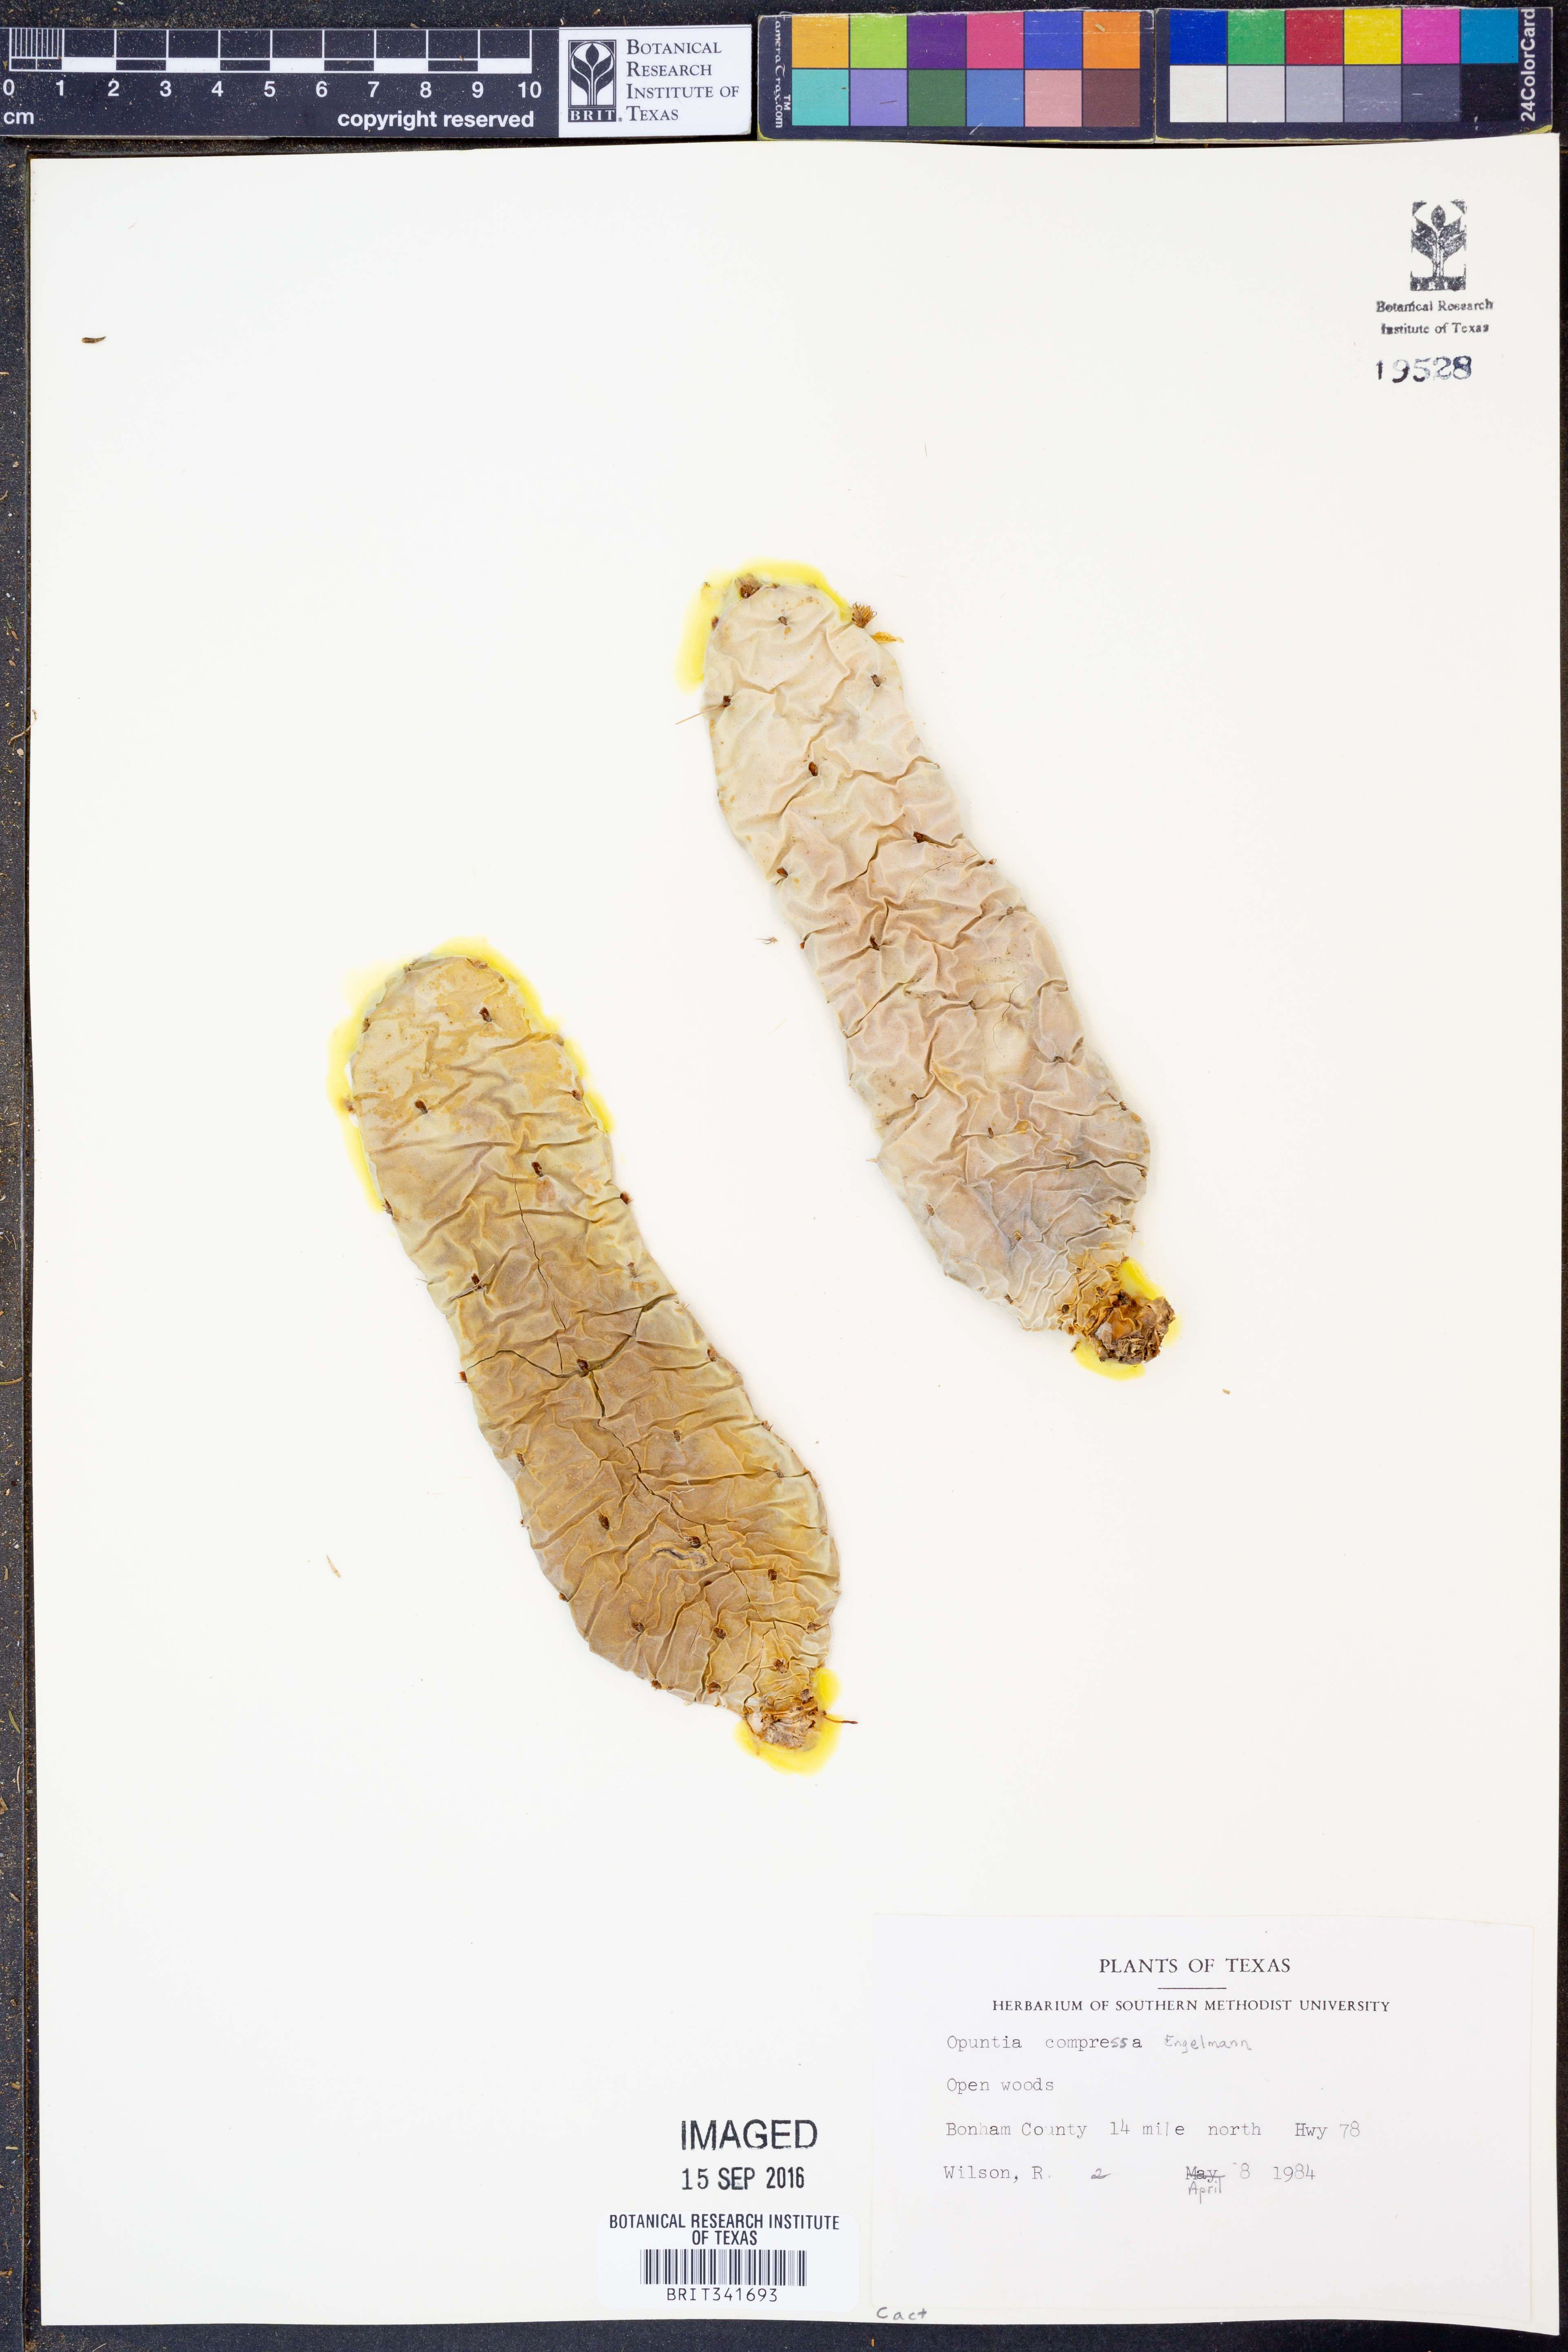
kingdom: Plantae
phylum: Tracheophyta
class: Magnoliopsida
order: Caryophyllales
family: Cactaceae
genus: Opuntia
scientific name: Opuntia macrorhiza
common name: Grassland pricklypear
